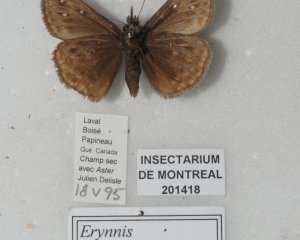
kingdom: Animalia
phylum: Arthropoda
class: Insecta
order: Lepidoptera
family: Hesperiidae
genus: Gesta
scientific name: Gesta
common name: Juvenal's Duskywing
